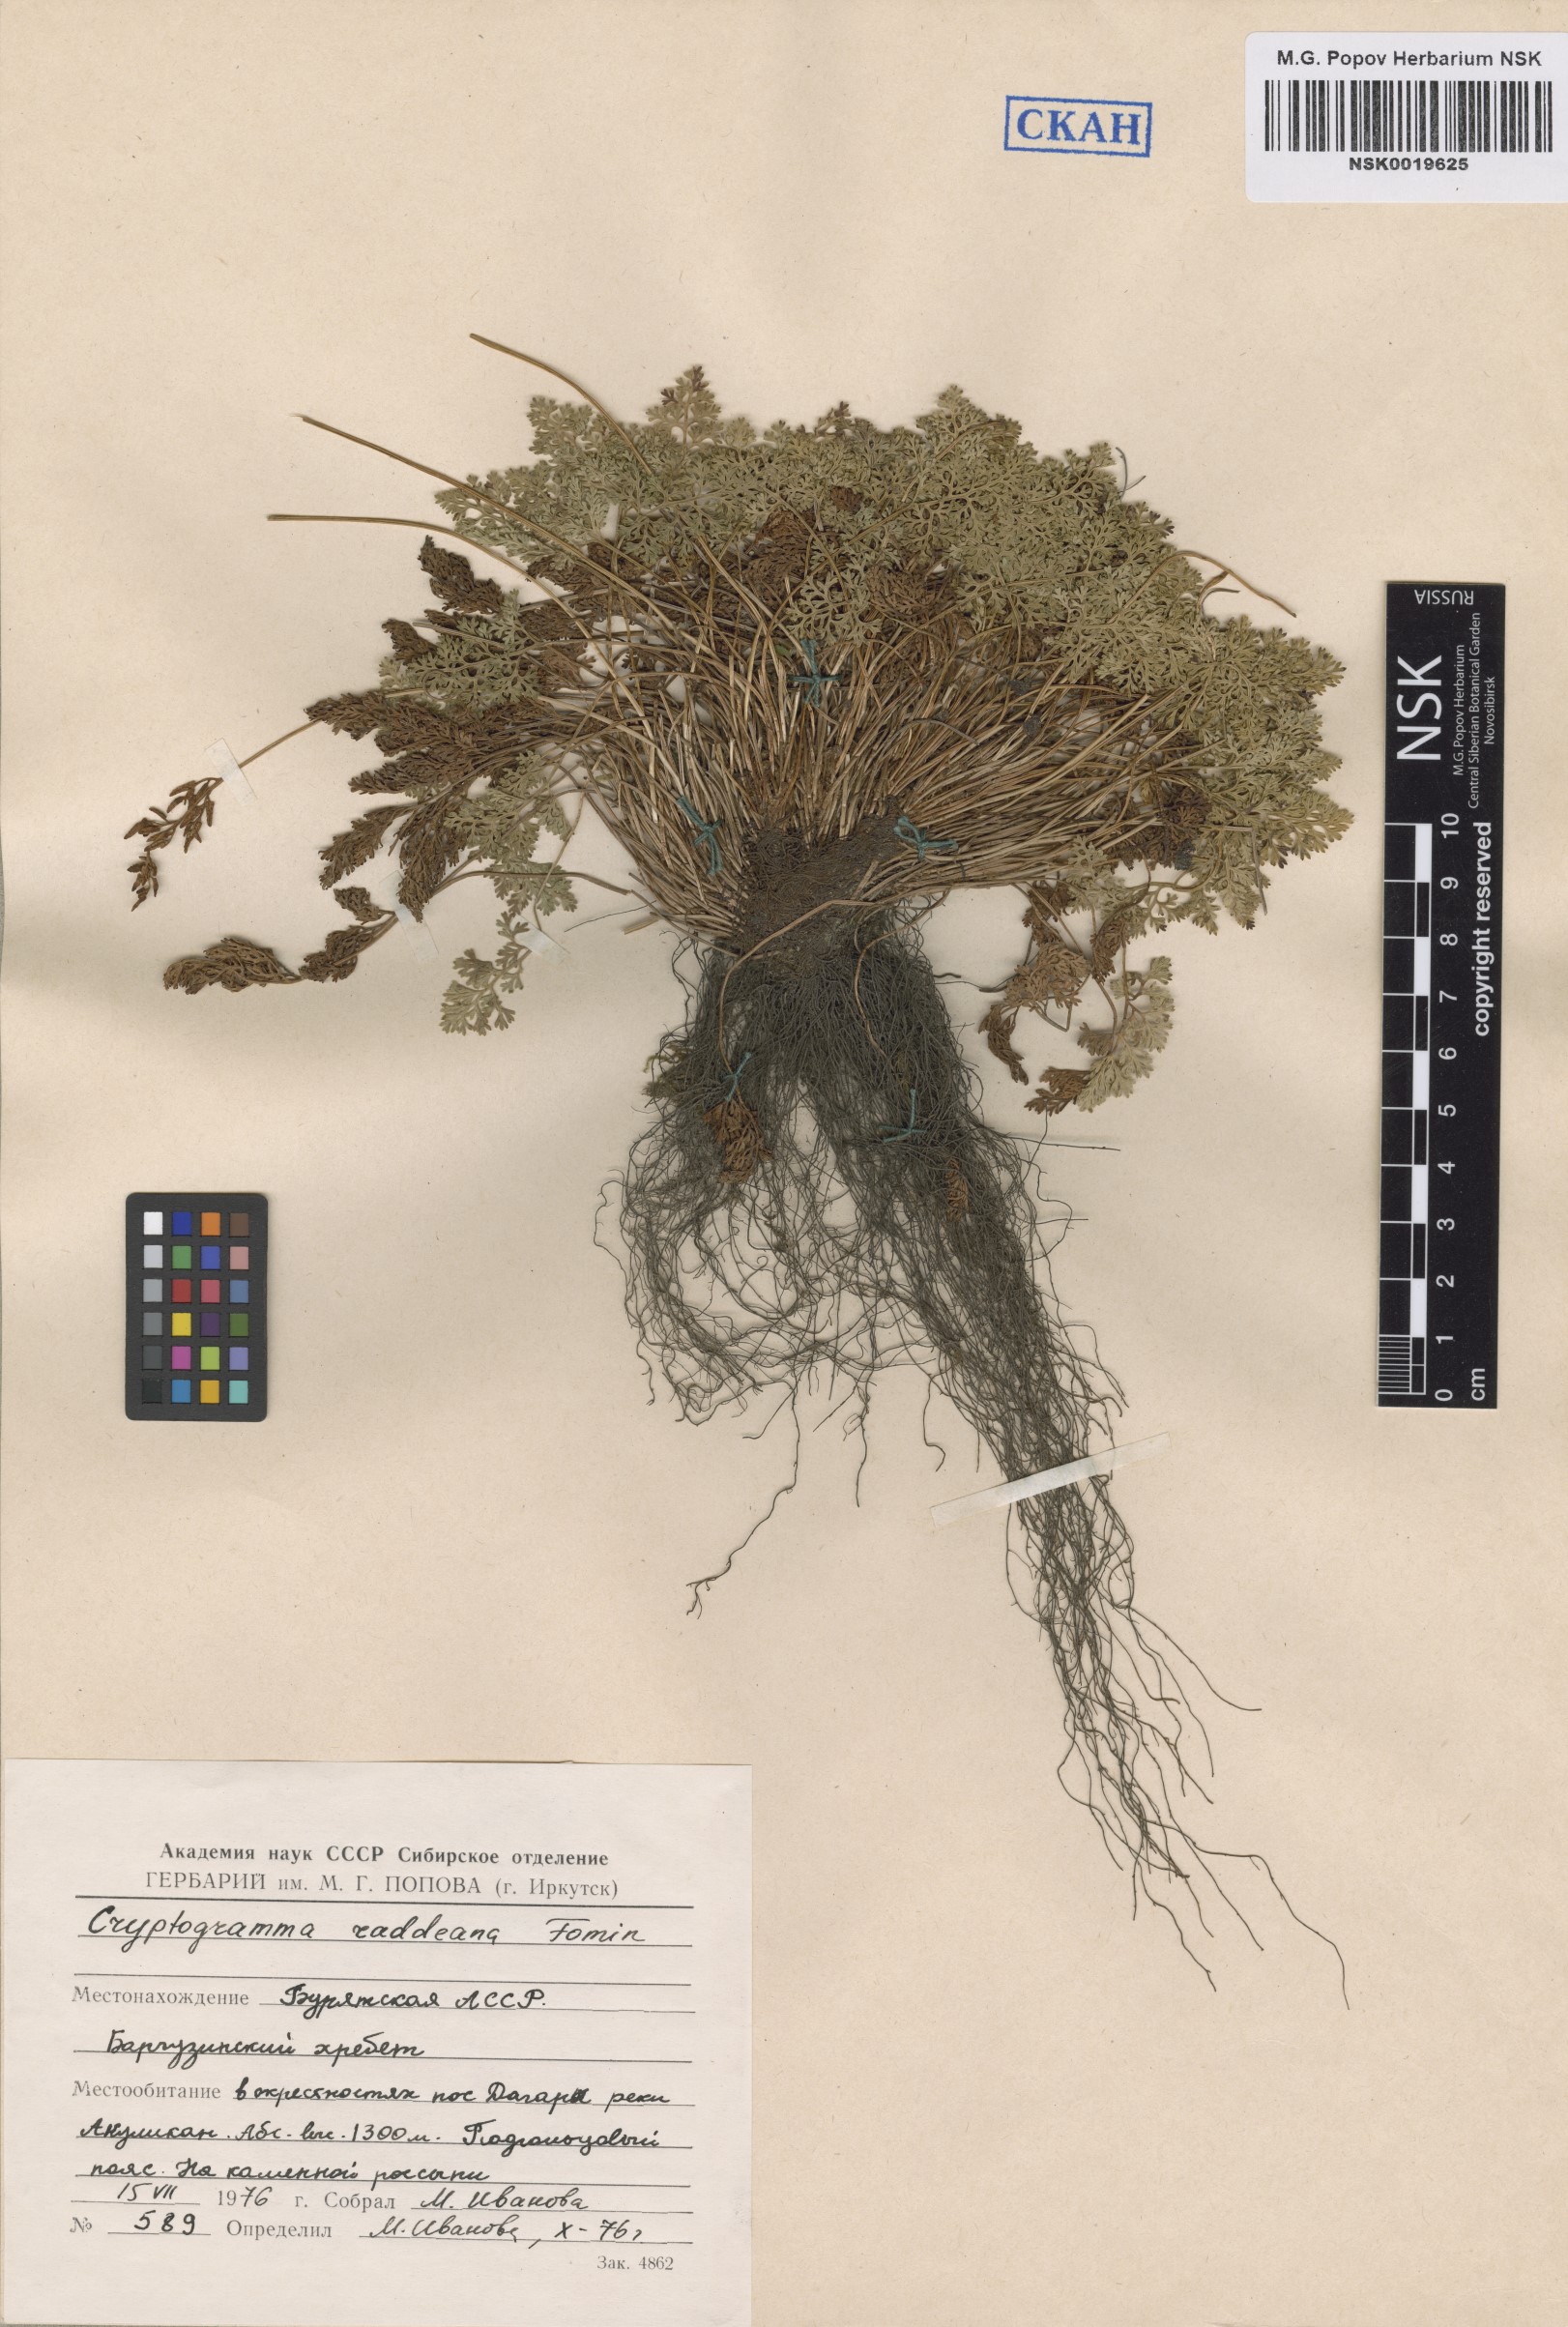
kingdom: Plantae
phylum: Tracheophyta
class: Polypodiopsida
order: Polypodiales
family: Pteridaceae
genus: Cryptogramma
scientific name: Cryptogramma brunoniana
